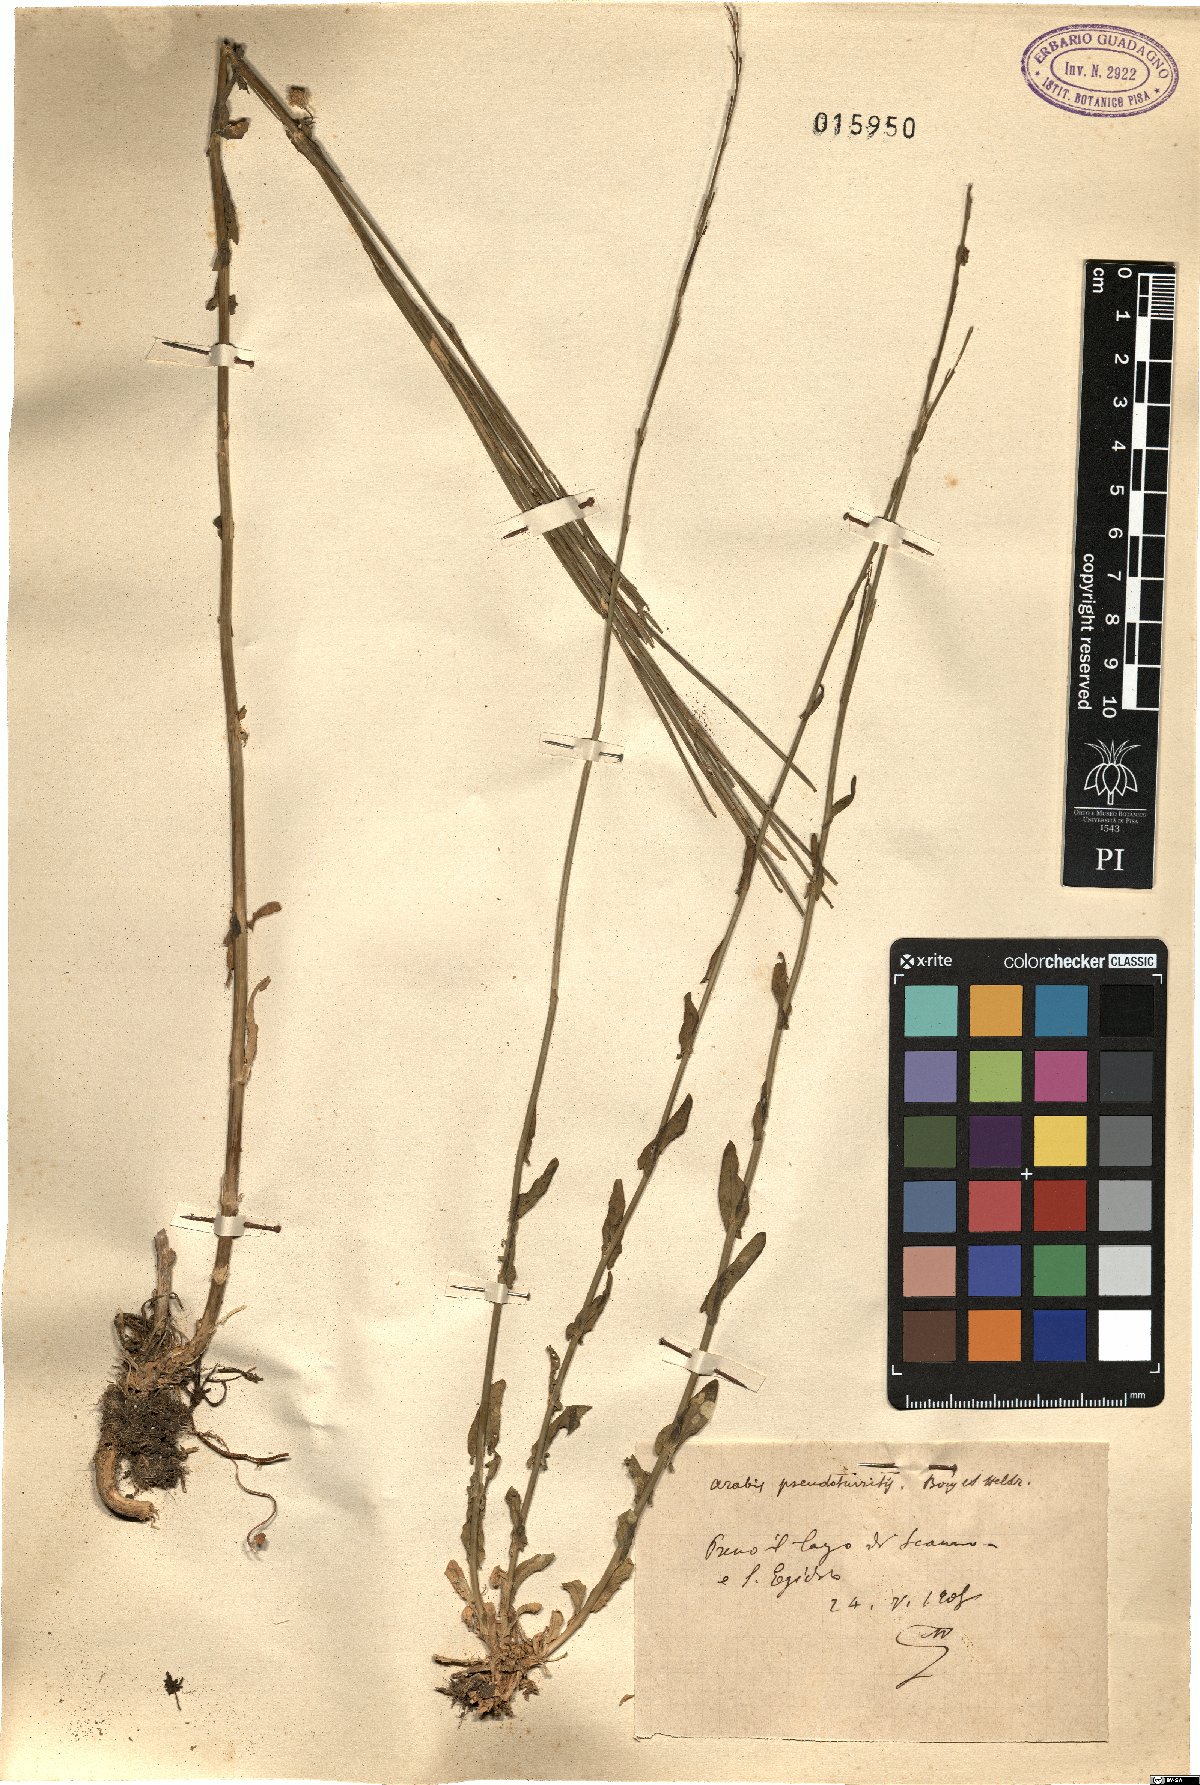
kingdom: Plantae
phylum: Tracheophyta
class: Magnoliopsida
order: Brassicales
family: Brassicaceae
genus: Turritis
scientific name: Turritis glabra
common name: Tower rockcress
